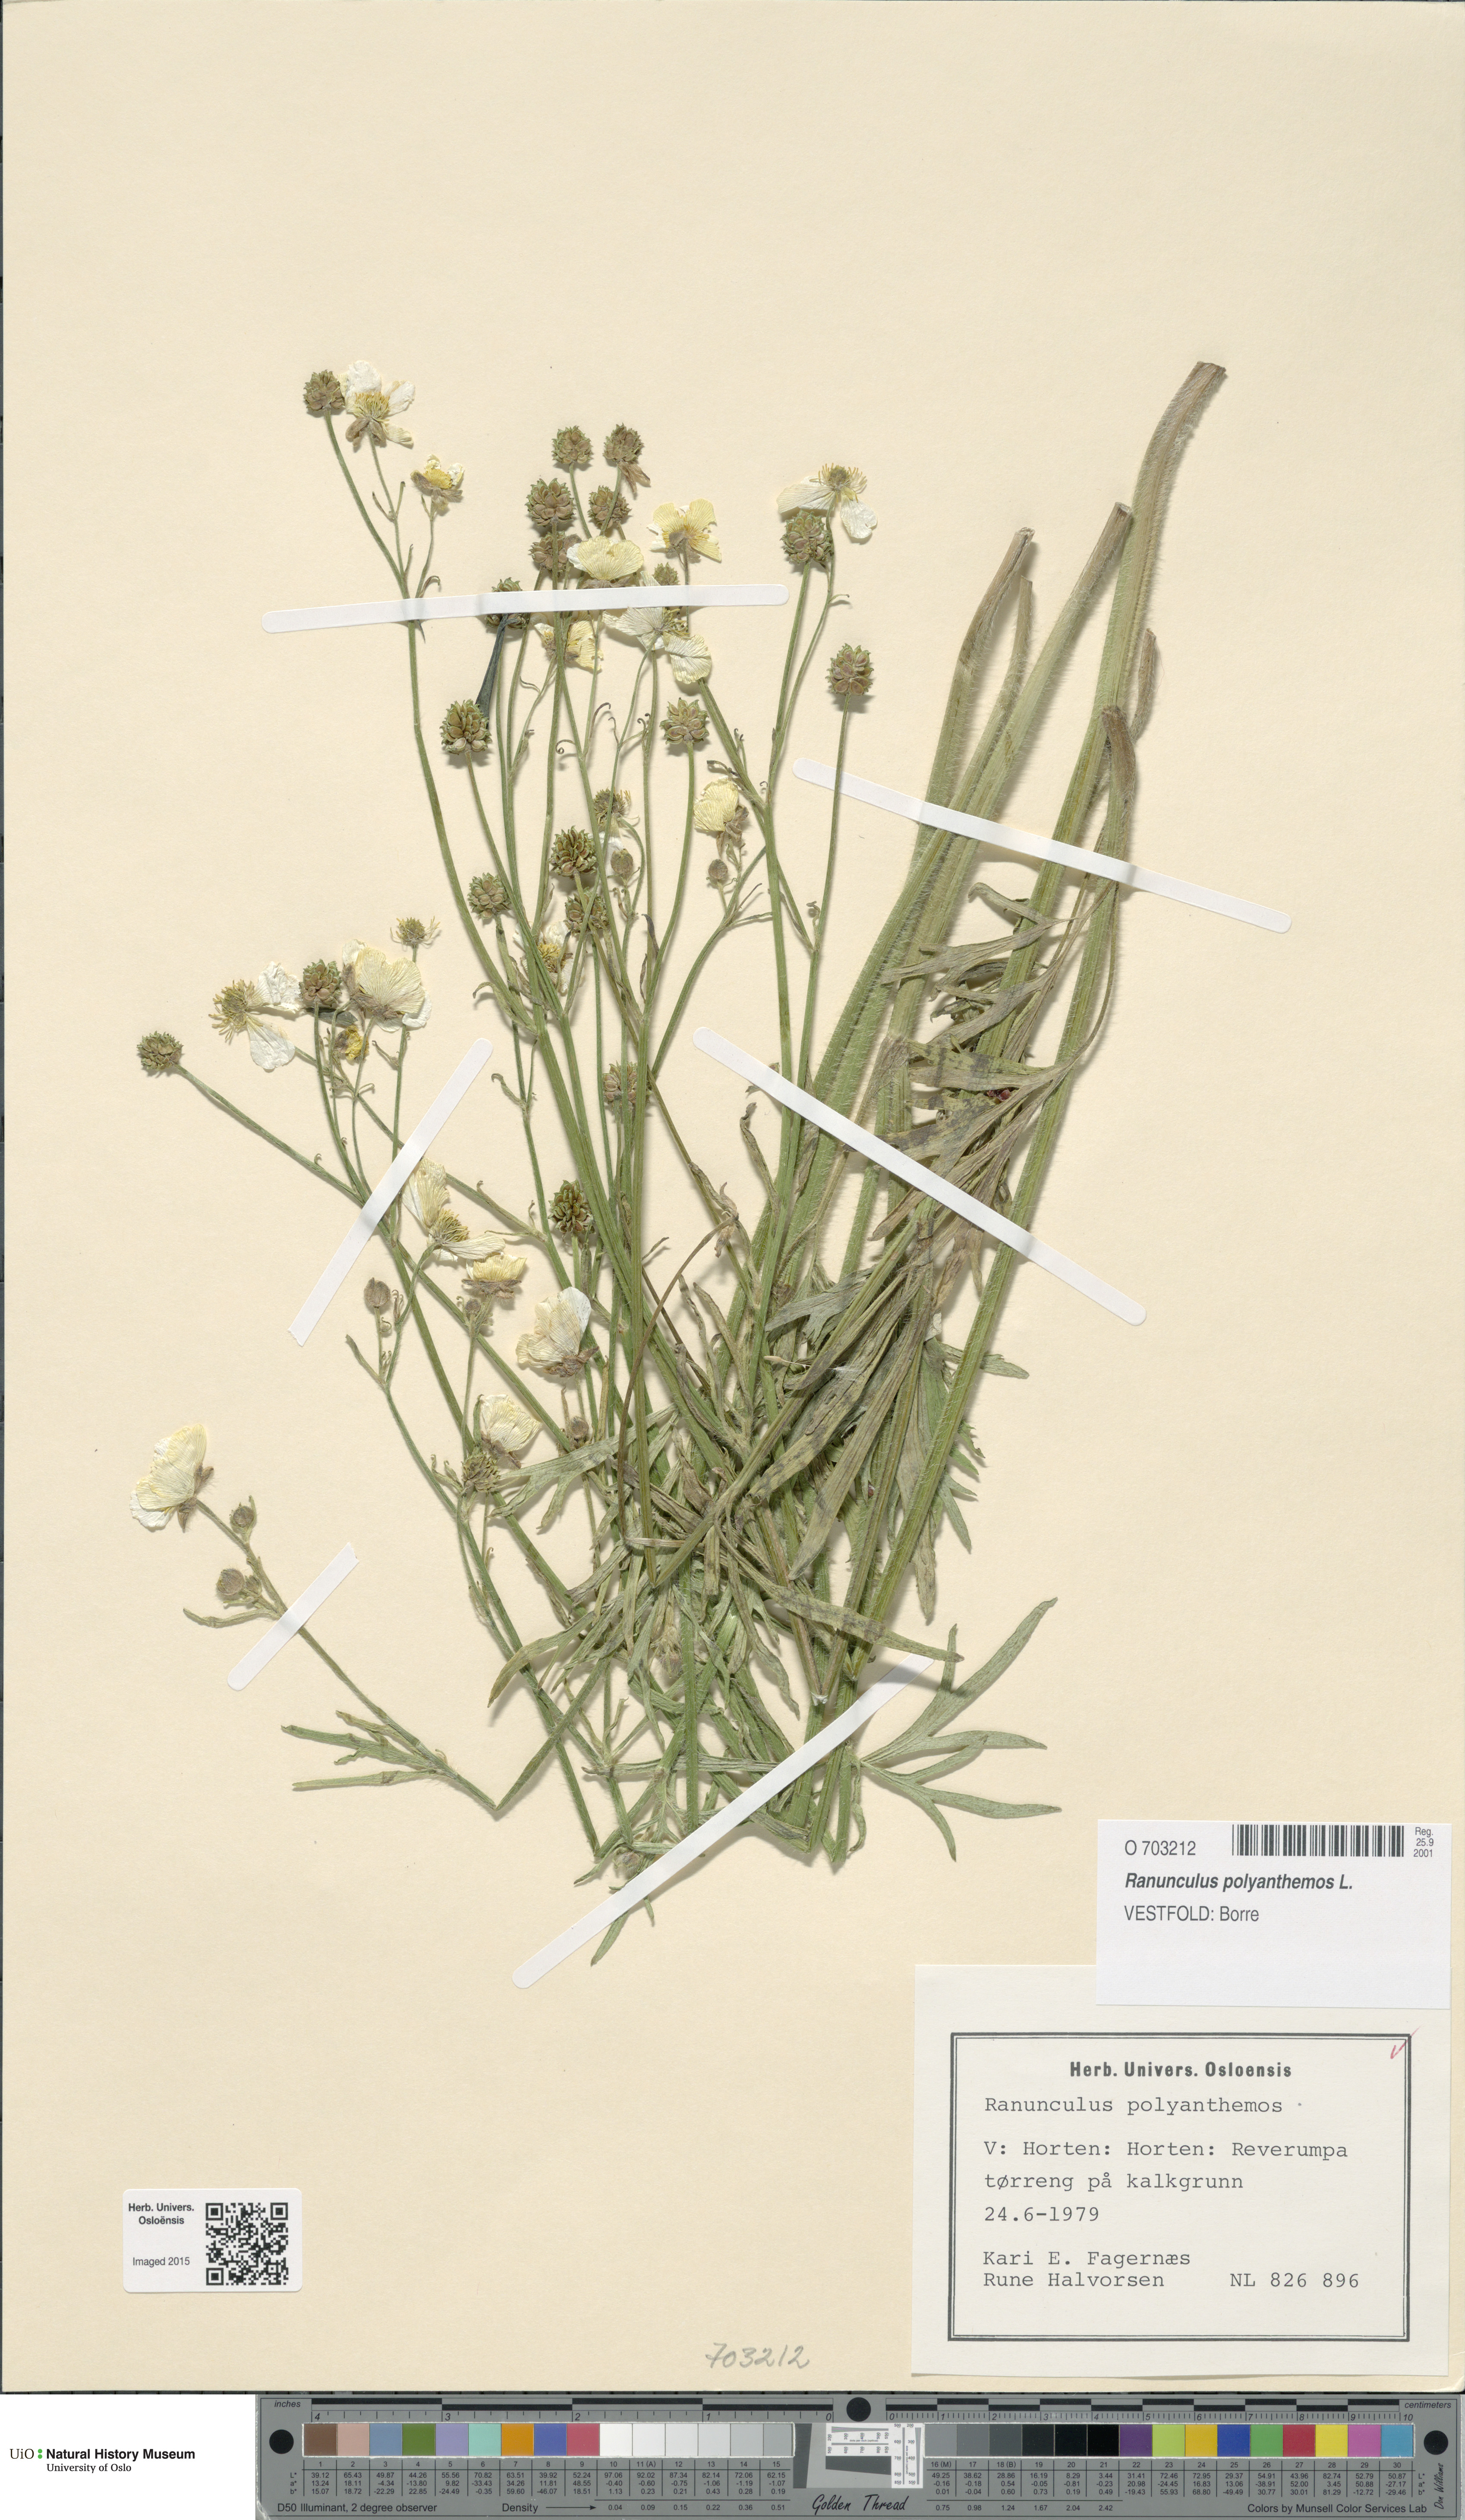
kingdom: Plantae
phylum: Tracheophyta
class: Magnoliopsida
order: Ranunculales
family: Ranunculaceae
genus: Ranunculus
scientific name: Ranunculus polyanthemos
